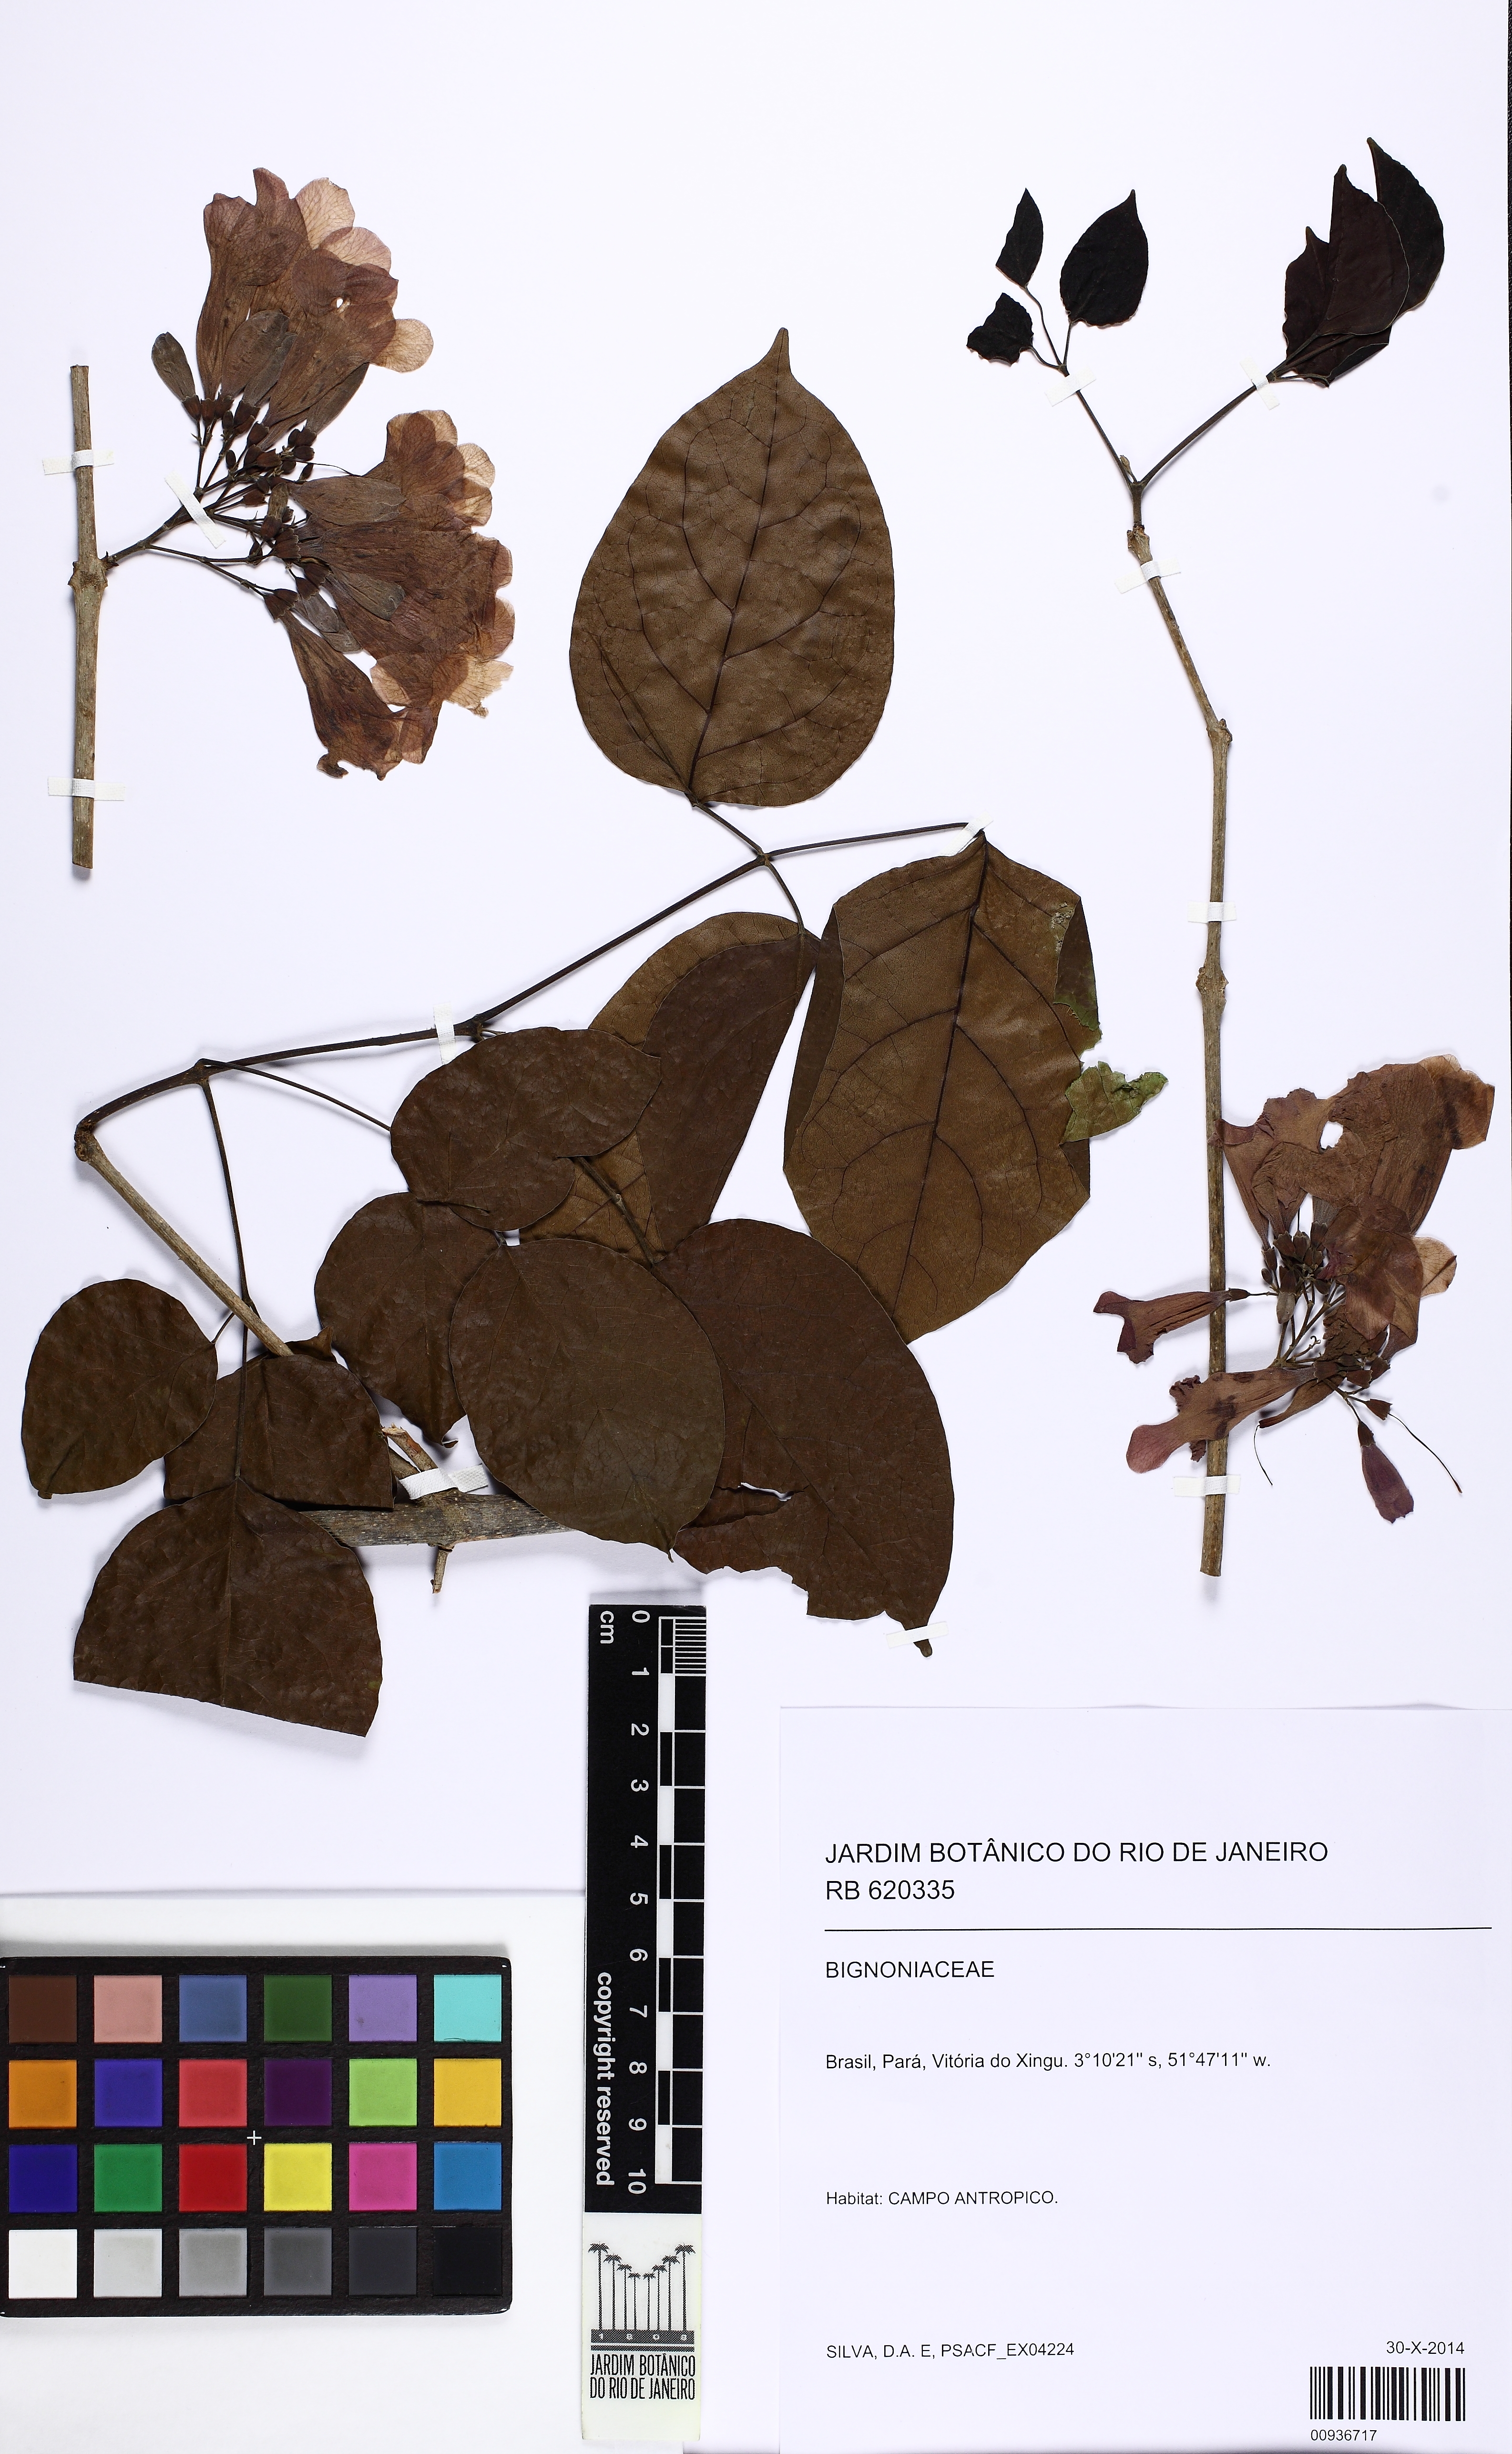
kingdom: Plantae
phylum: Tracheophyta
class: Magnoliopsida
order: Lamiales
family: Bignoniaceae
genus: Cuspidaria
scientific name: Cuspidaria lateriflora
